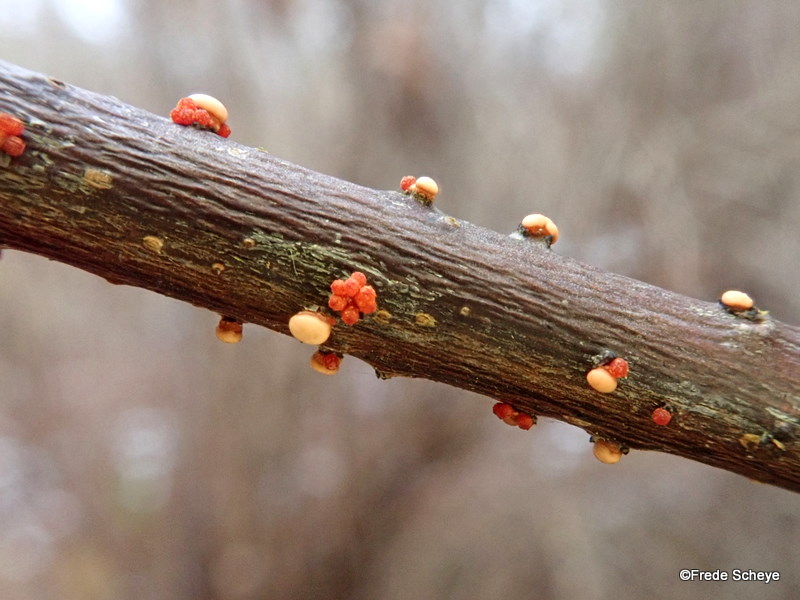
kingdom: Fungi
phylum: Ascomycota
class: Sordariomycetes
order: Hypocreales
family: Nectriaceae
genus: Nectria
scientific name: Nectria cinnabarina
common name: almindelig cinnobersvamp
